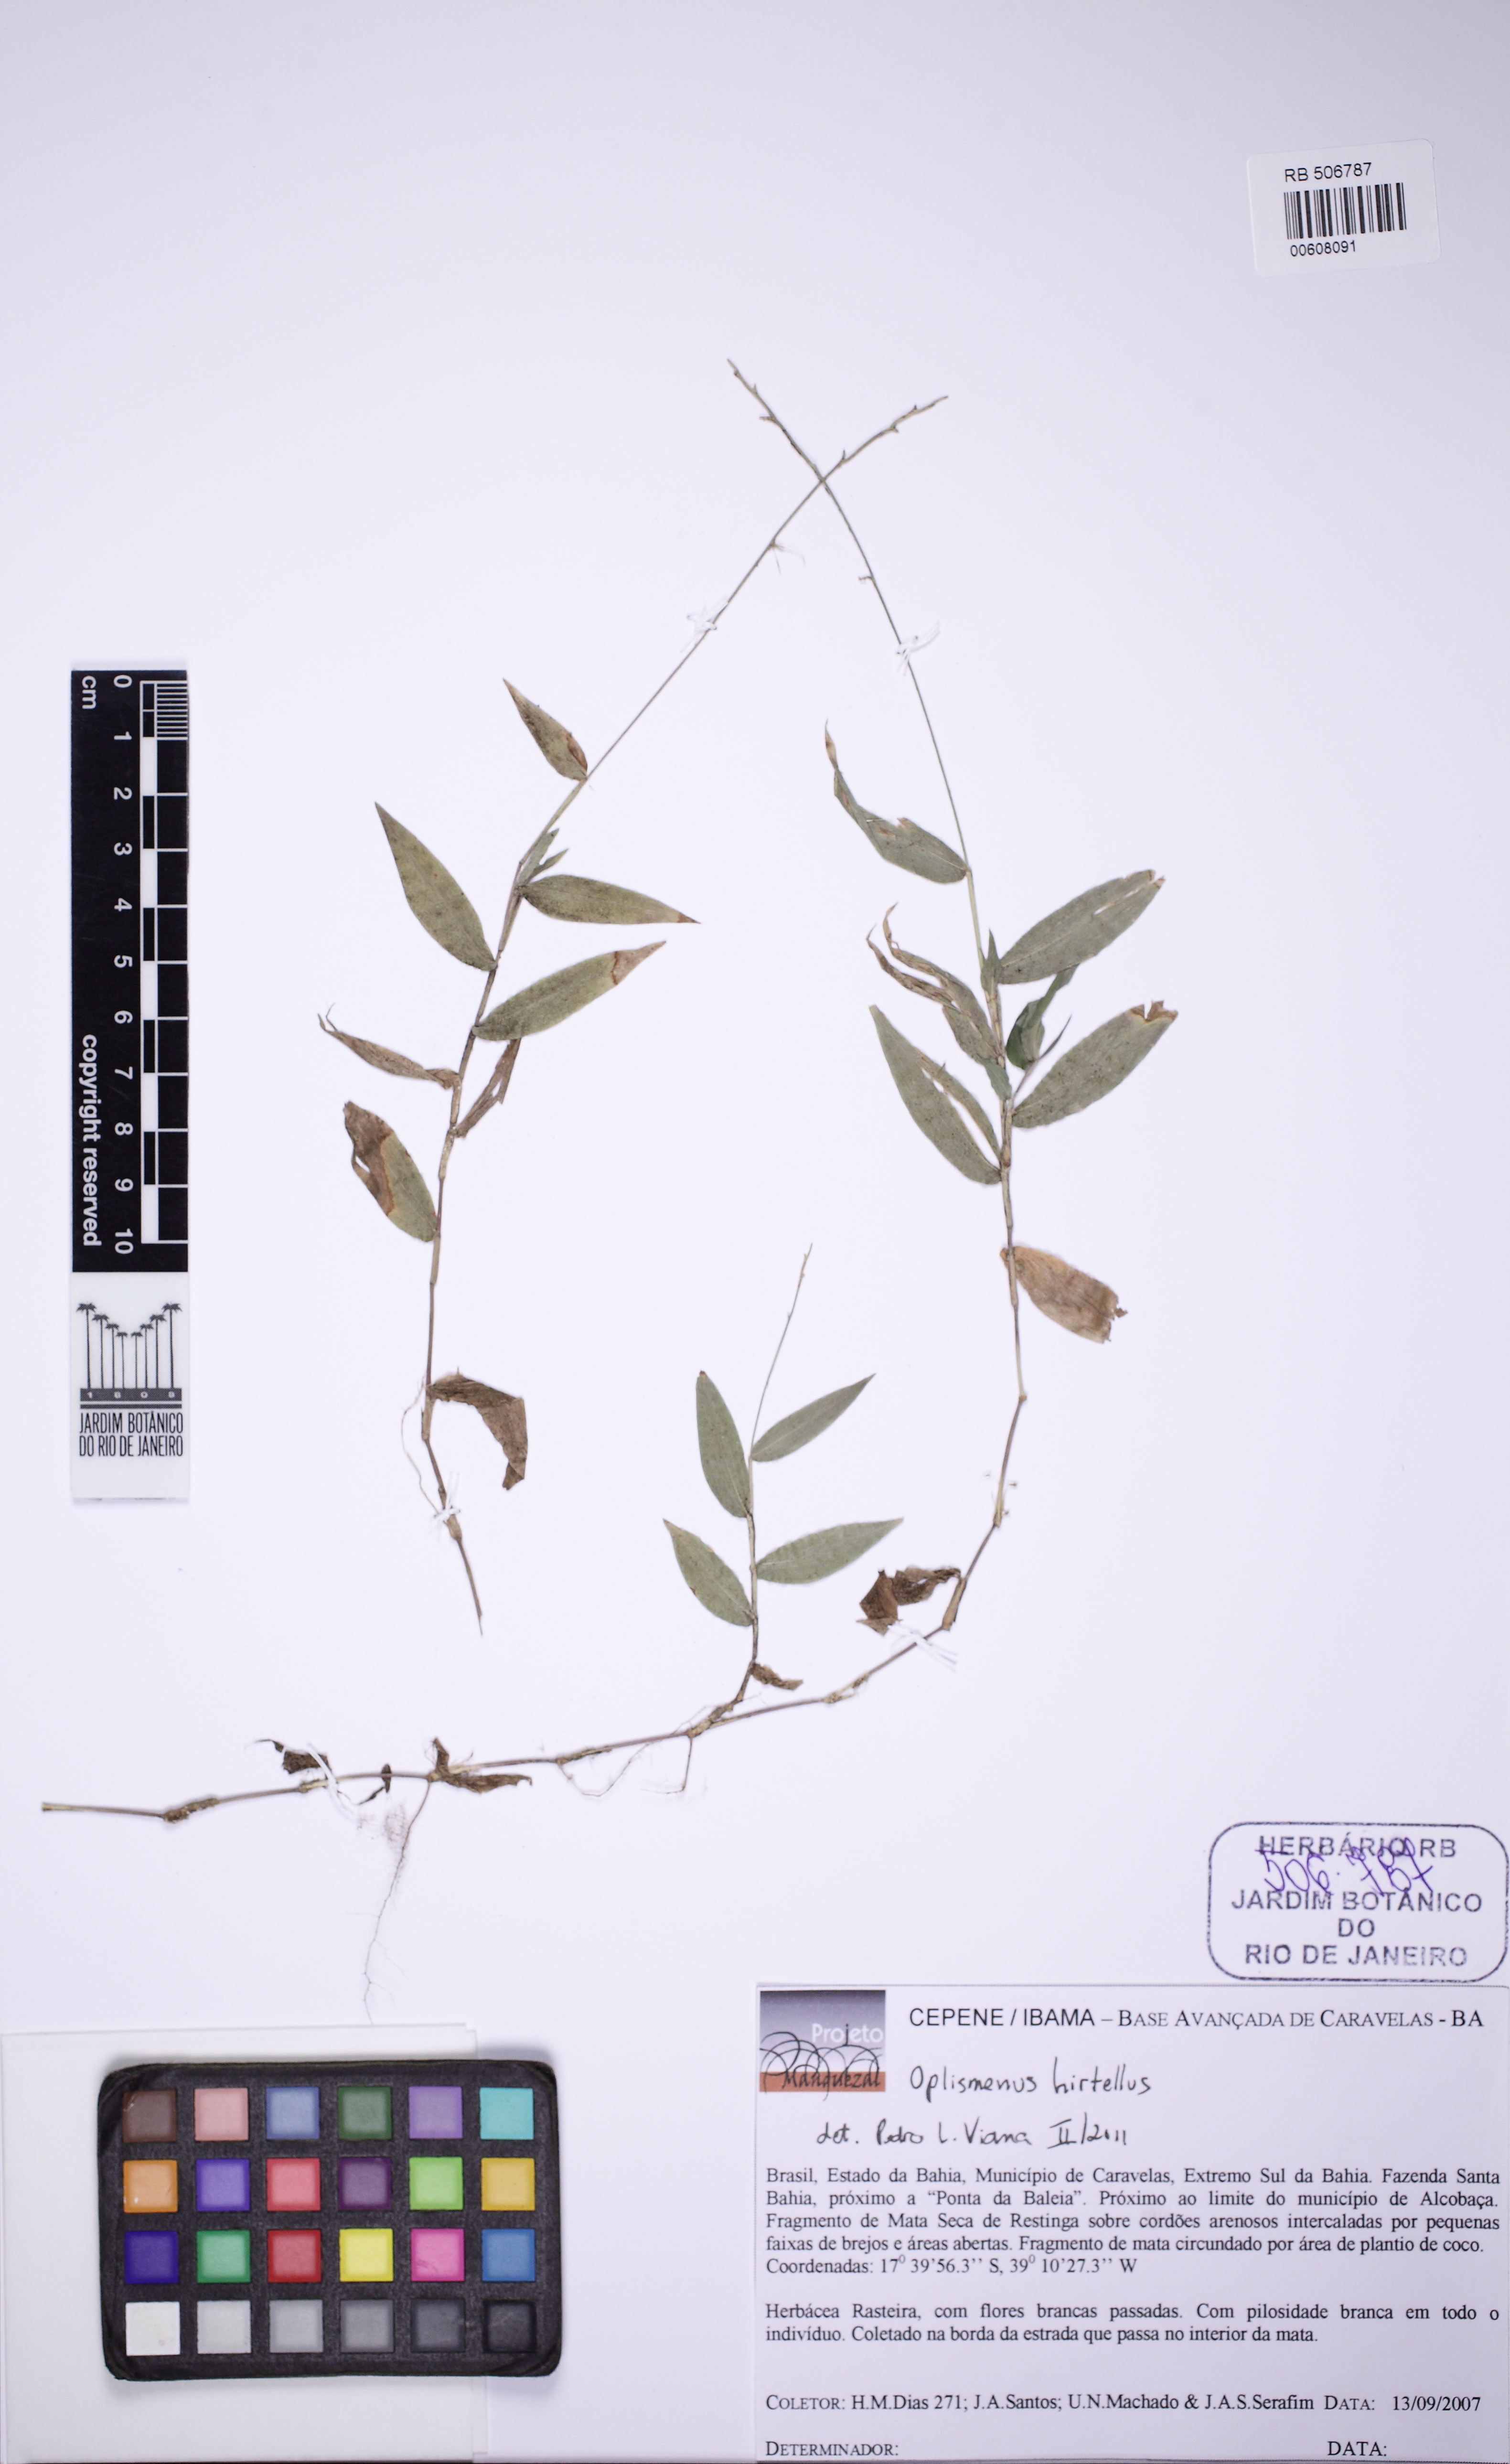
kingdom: Plantae
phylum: Tracheophyta
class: Liliopsida
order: Poales
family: Poaceae
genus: Oplismenus
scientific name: Oplismenus hirtellus
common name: Basketgrass
